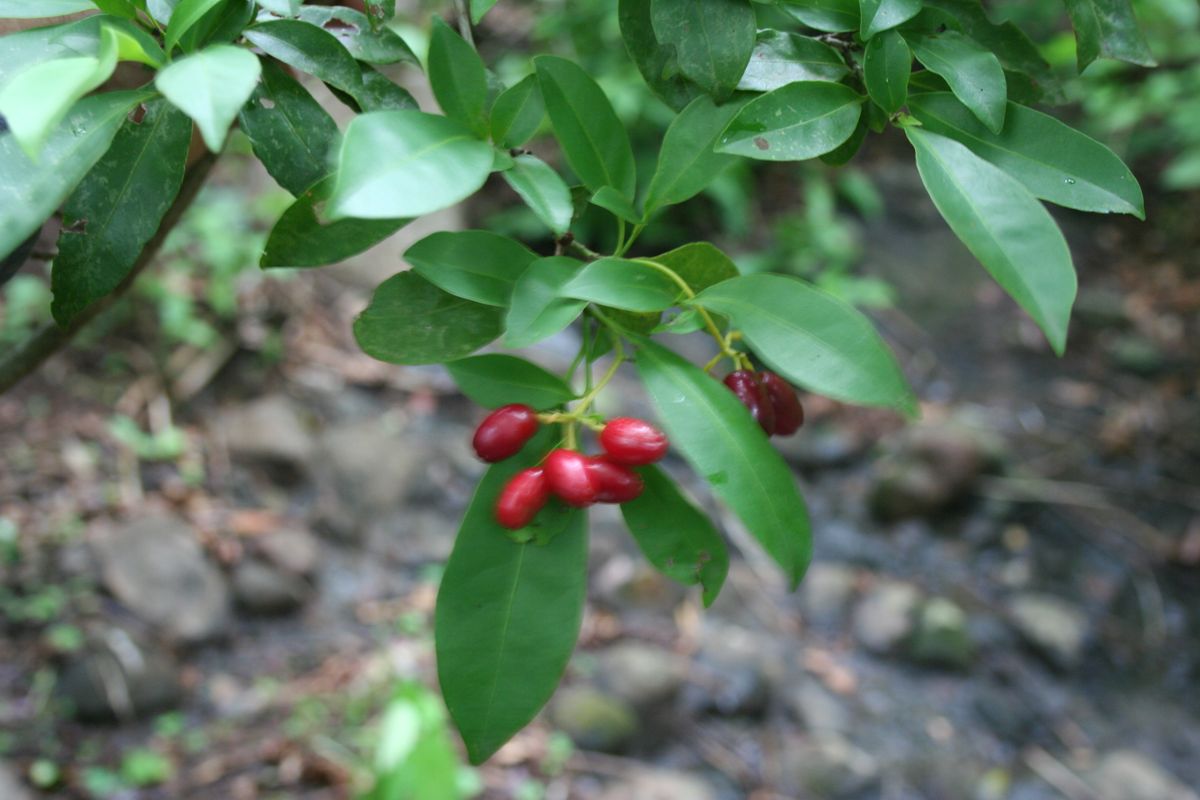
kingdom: Plantae
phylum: Tracheophyta
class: Magnoliopsida
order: Caryophyllales
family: Nyctaginaceae
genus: Guapira
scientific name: Guapira witsbergeri
